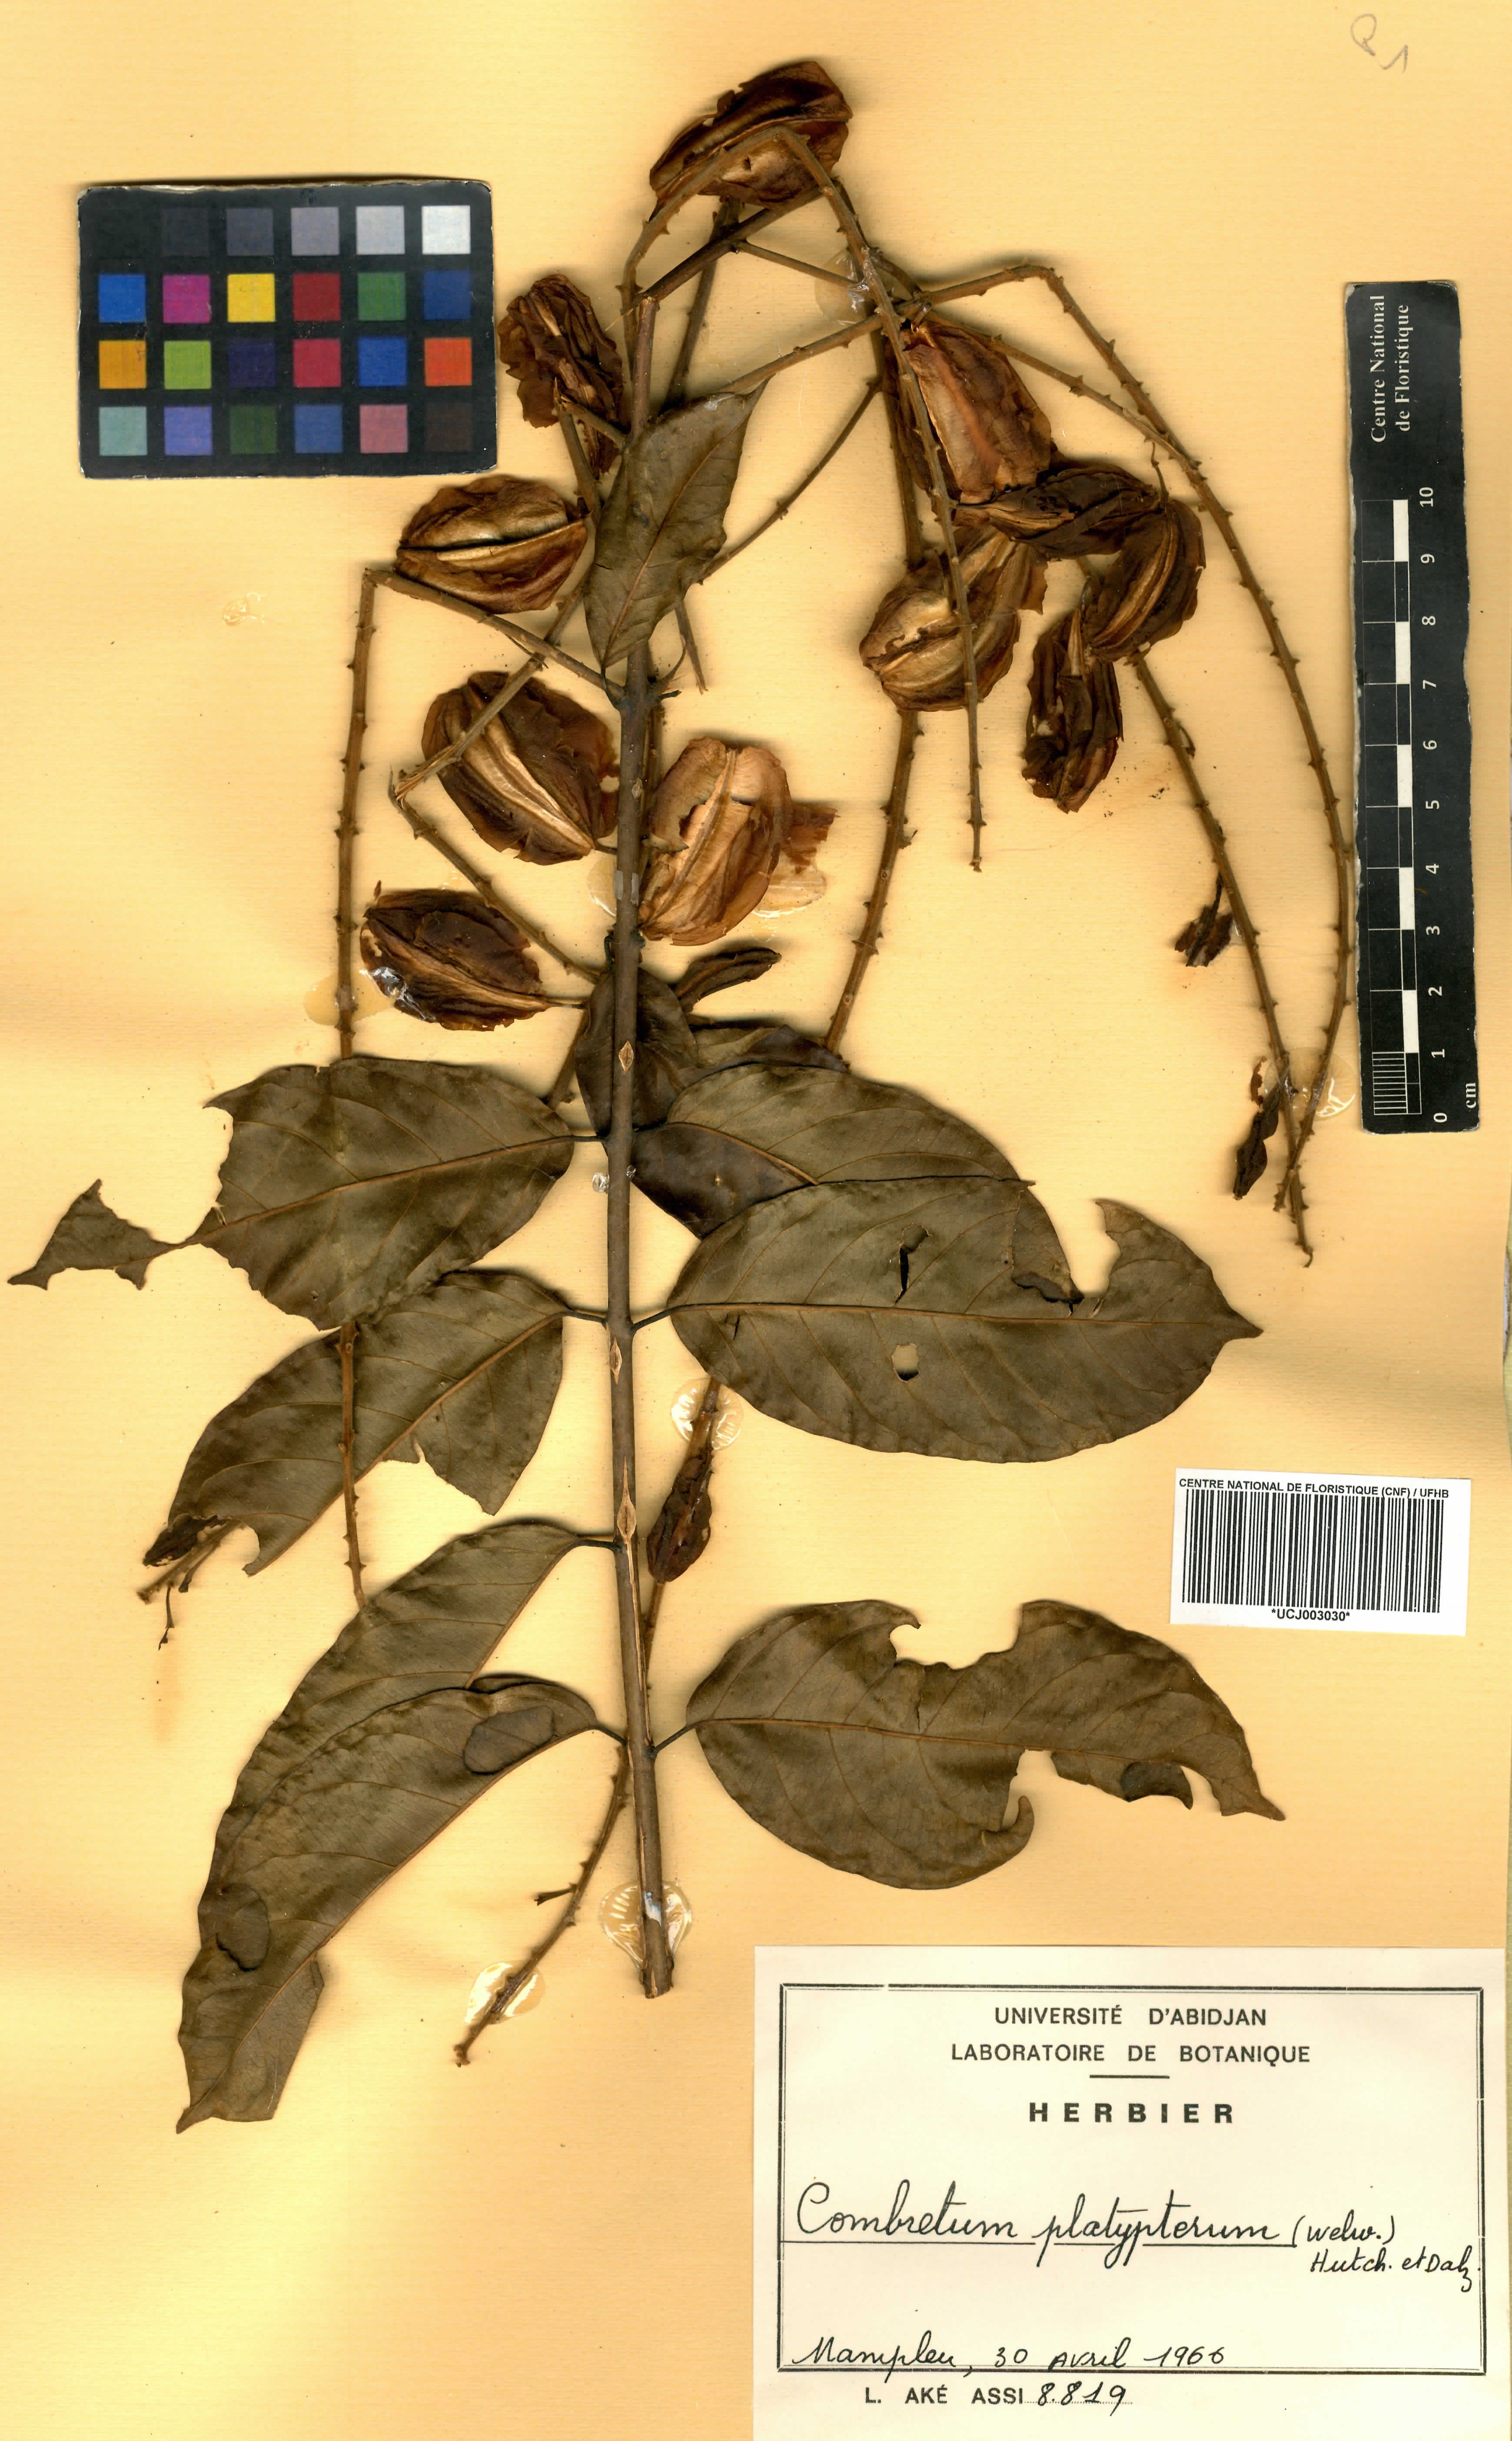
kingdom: Plantae
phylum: Tracheophyta
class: Magnoliopsida
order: Myrtales
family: Combretaceae
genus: Combretum
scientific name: Combretum platypterum
